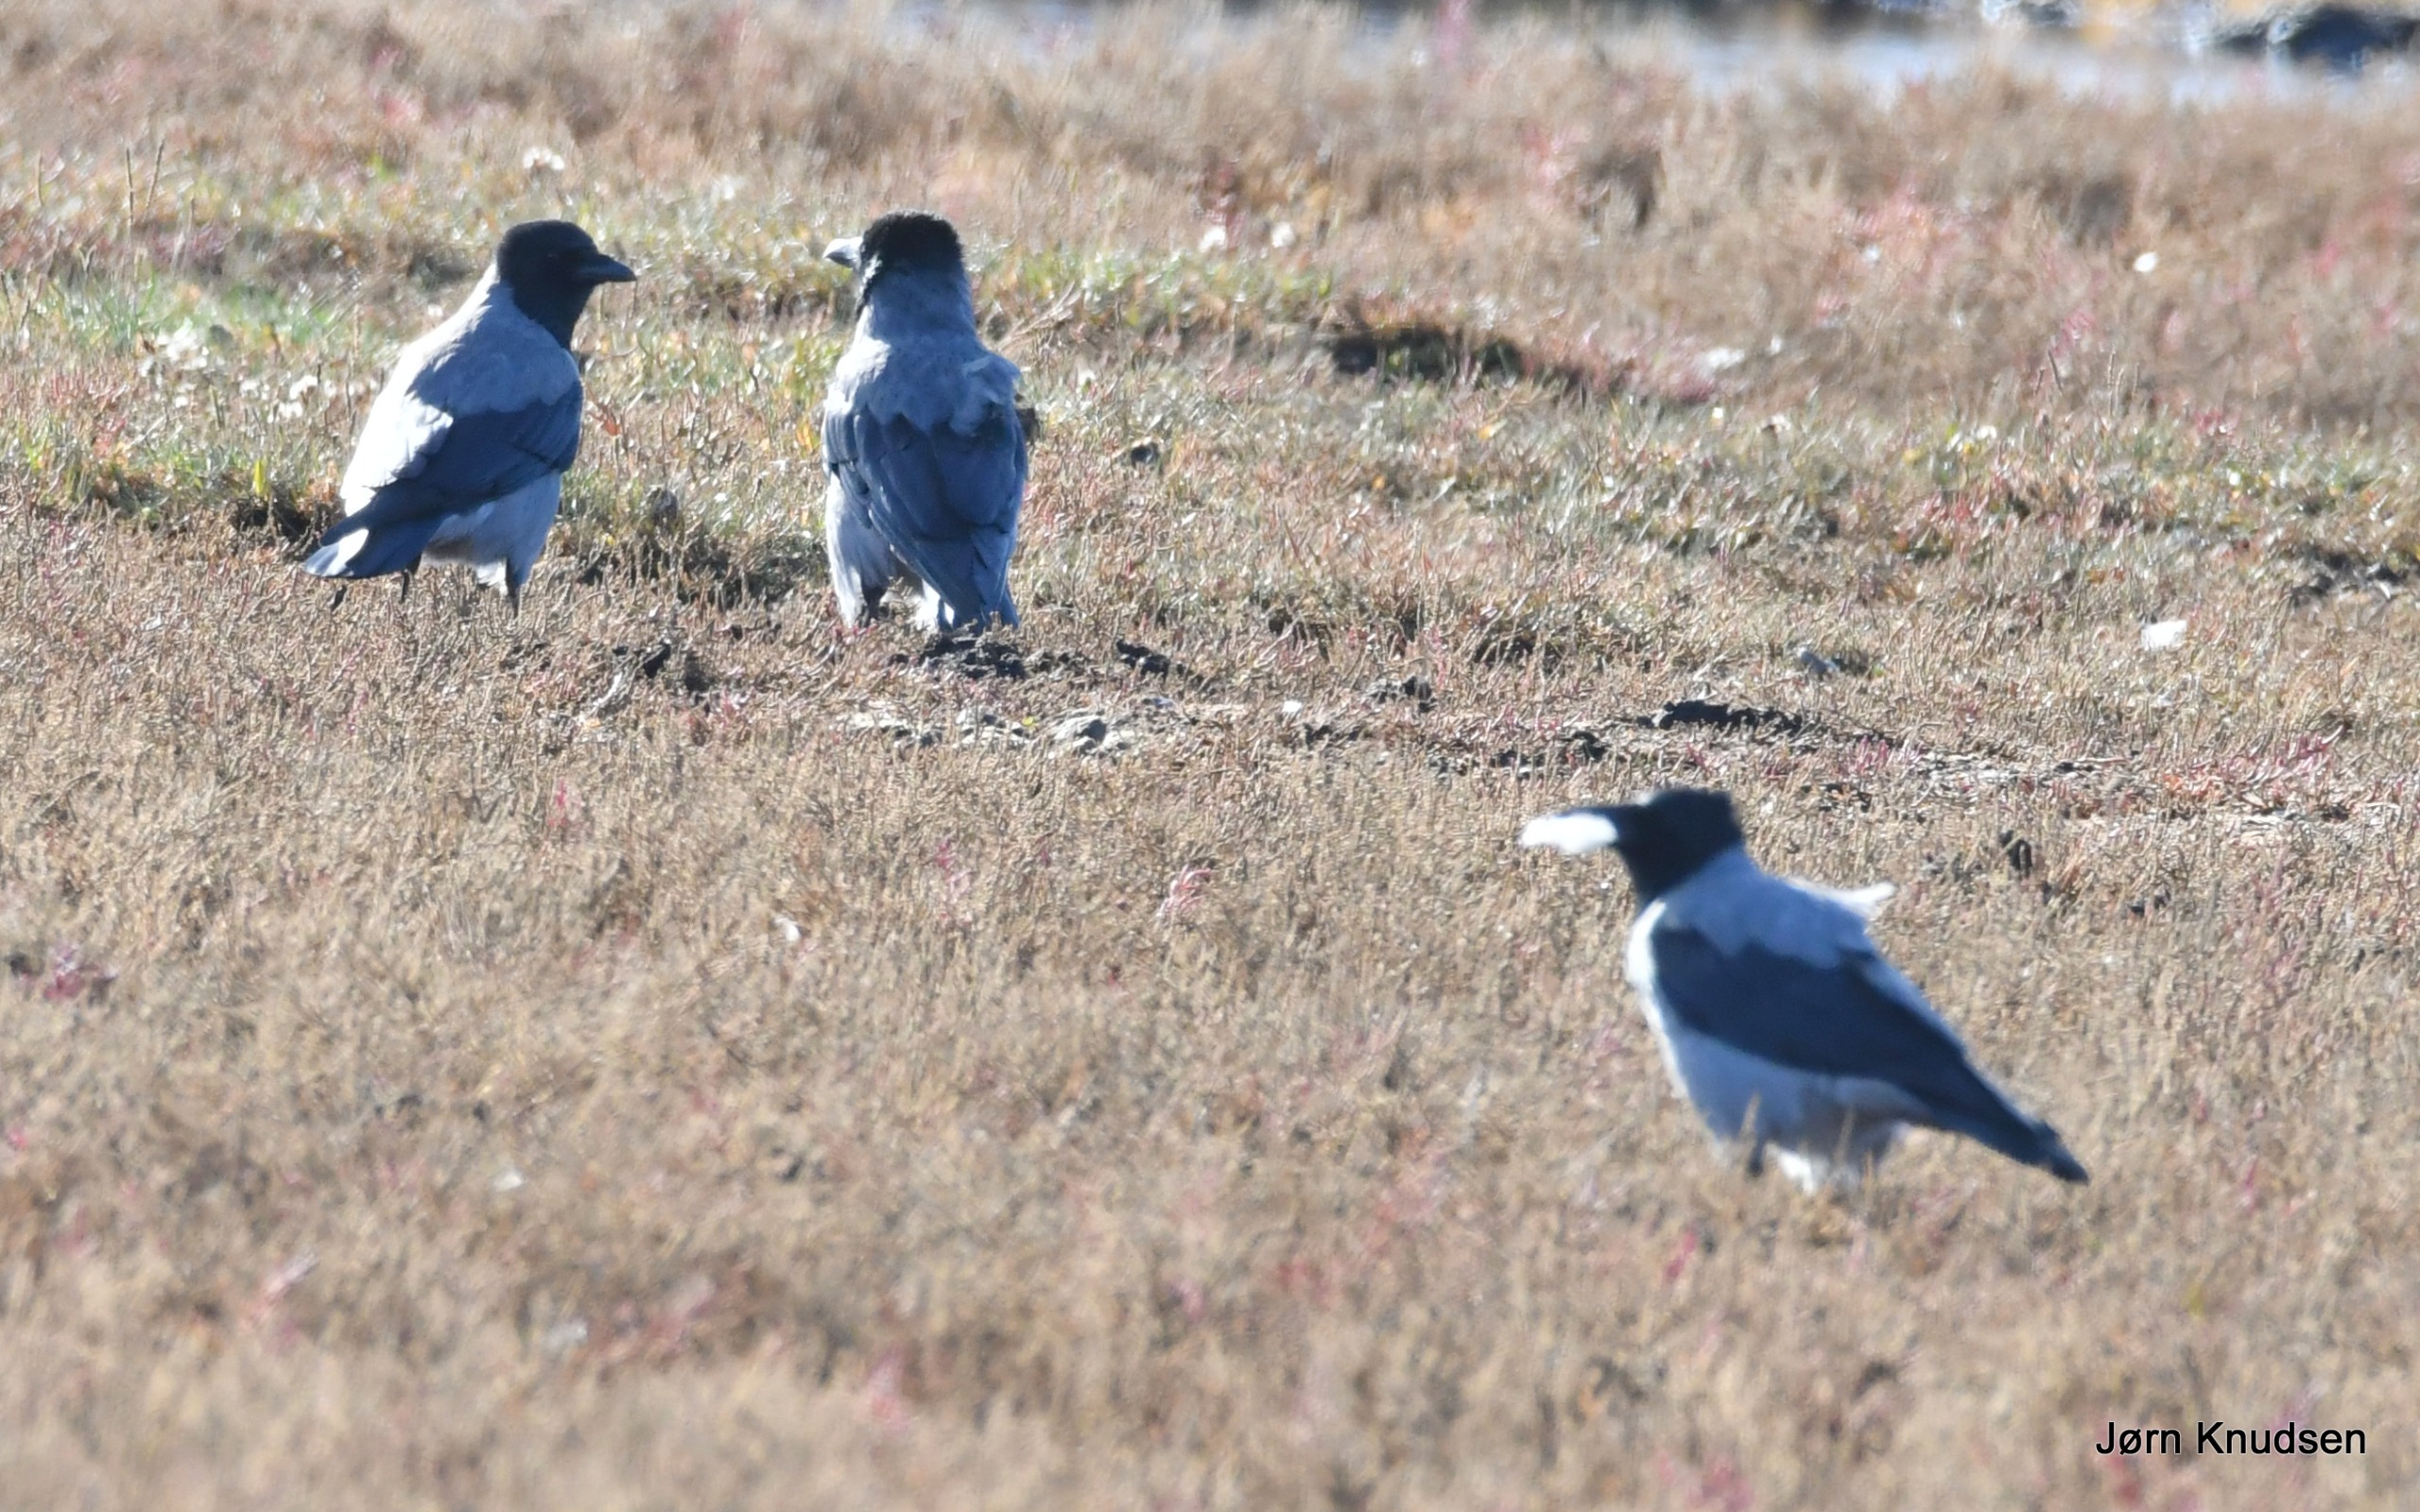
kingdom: Animalia
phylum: Chordata
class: Aves
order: Passeriformes
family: Corvidae
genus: Corvus
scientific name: Corvus cornix
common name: Gråkrage
